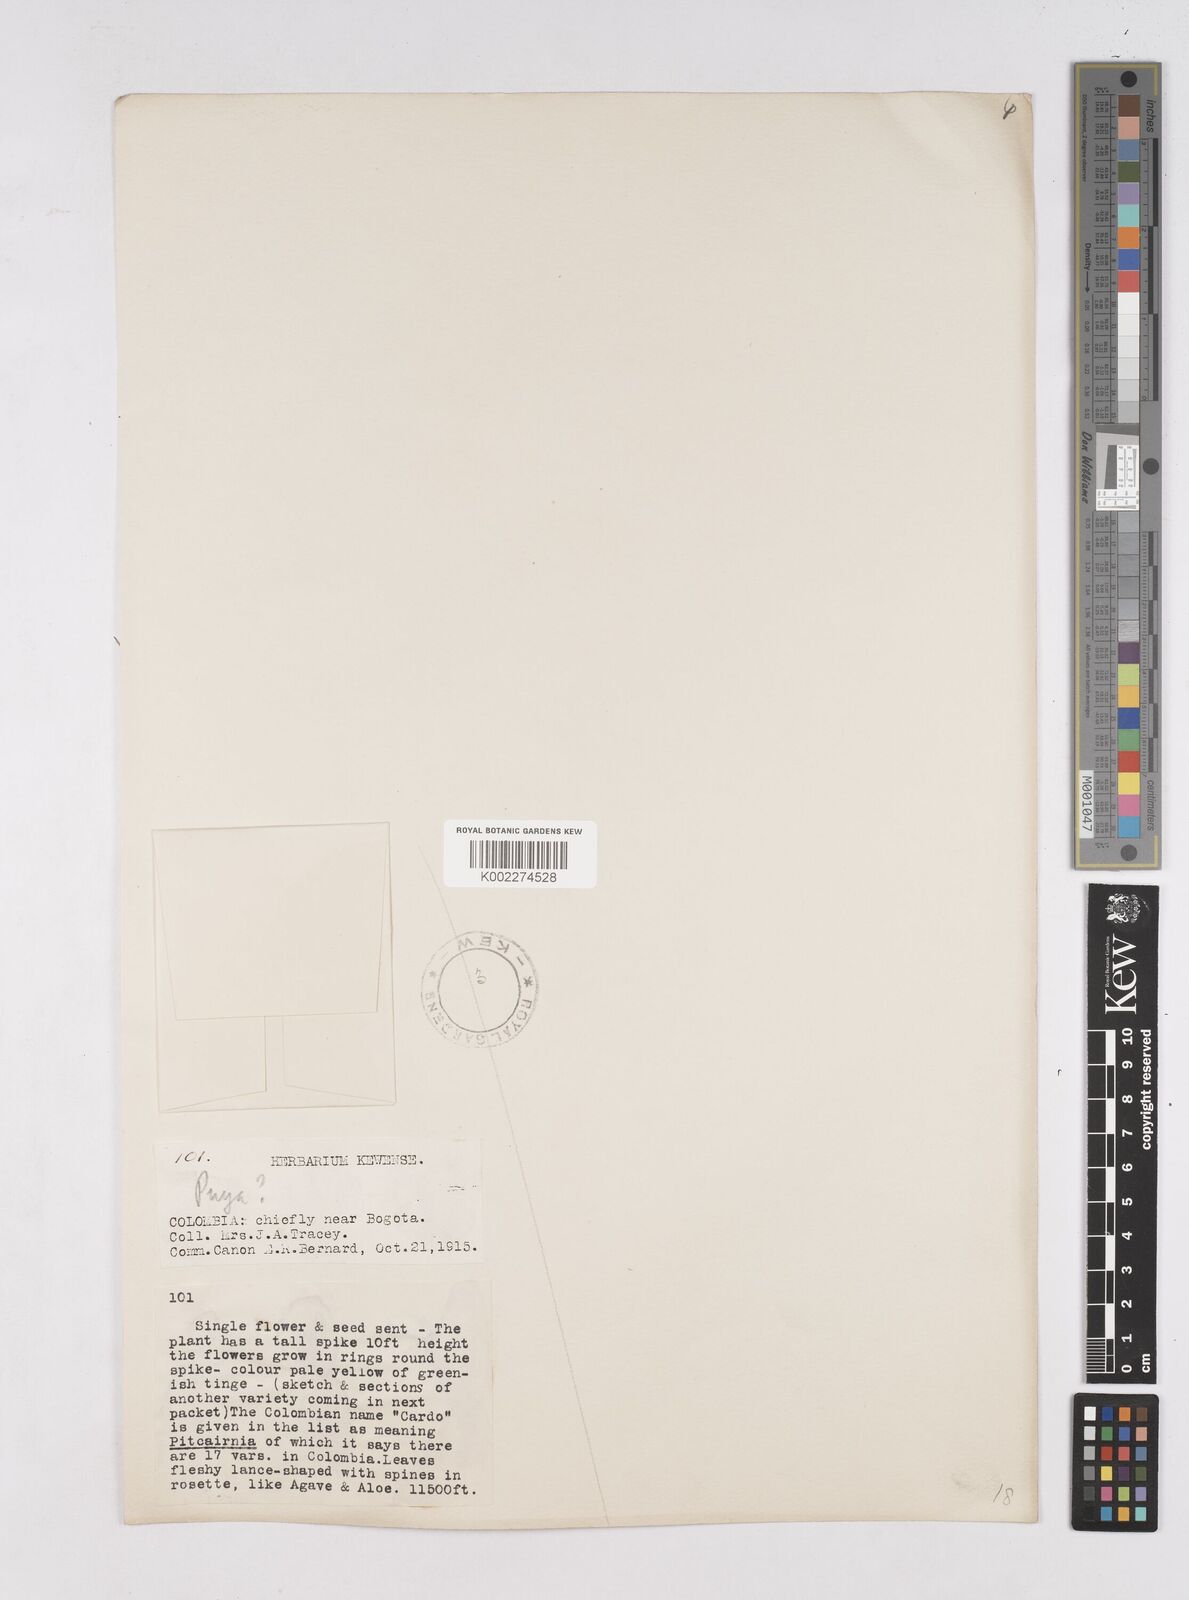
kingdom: Plantae
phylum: Tracheophyta
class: Liliopsida
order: Poales
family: Bromeliaceae
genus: Pitcairnia
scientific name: Pitcairnia
